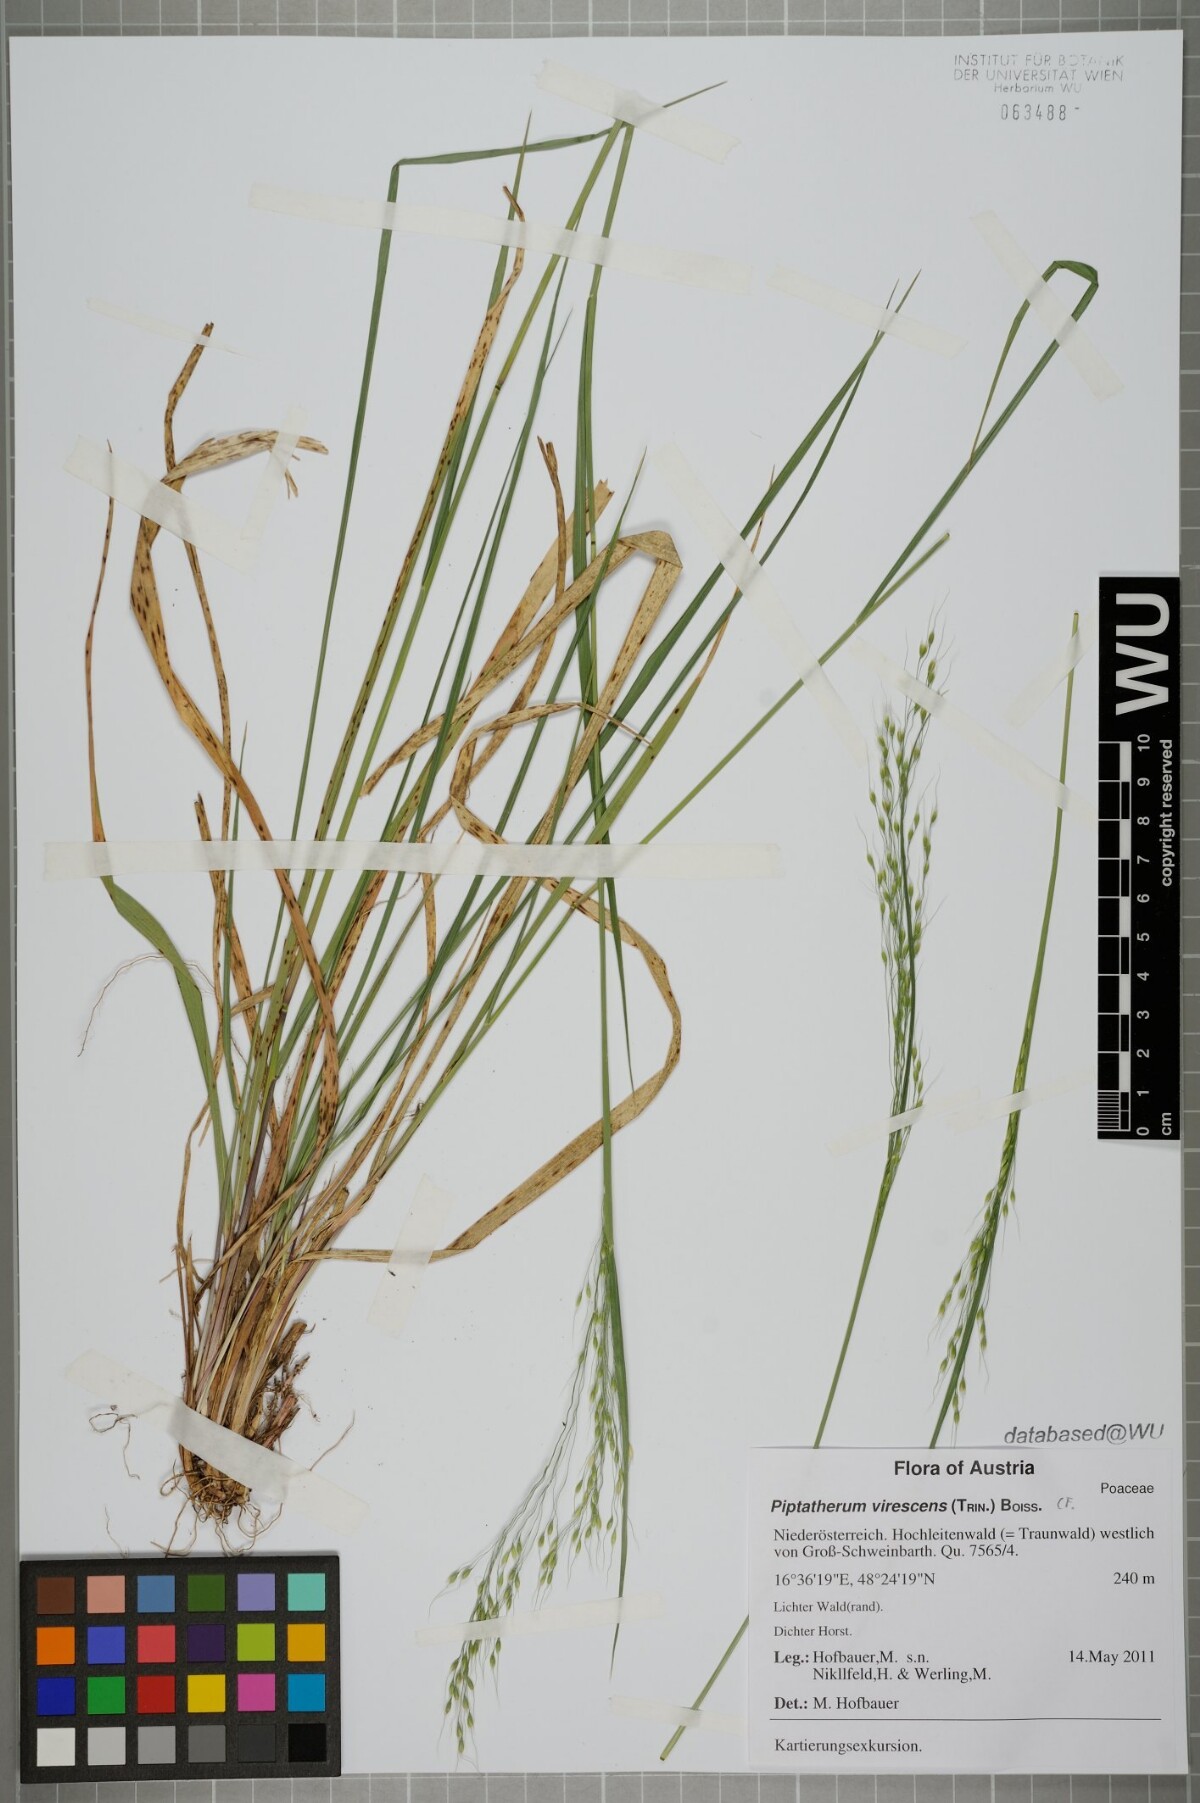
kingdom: Plantae
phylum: Tracheophyta
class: Liliopsida
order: Poales
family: Poaceae
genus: Achnatherum
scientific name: Achnatherum virescens
